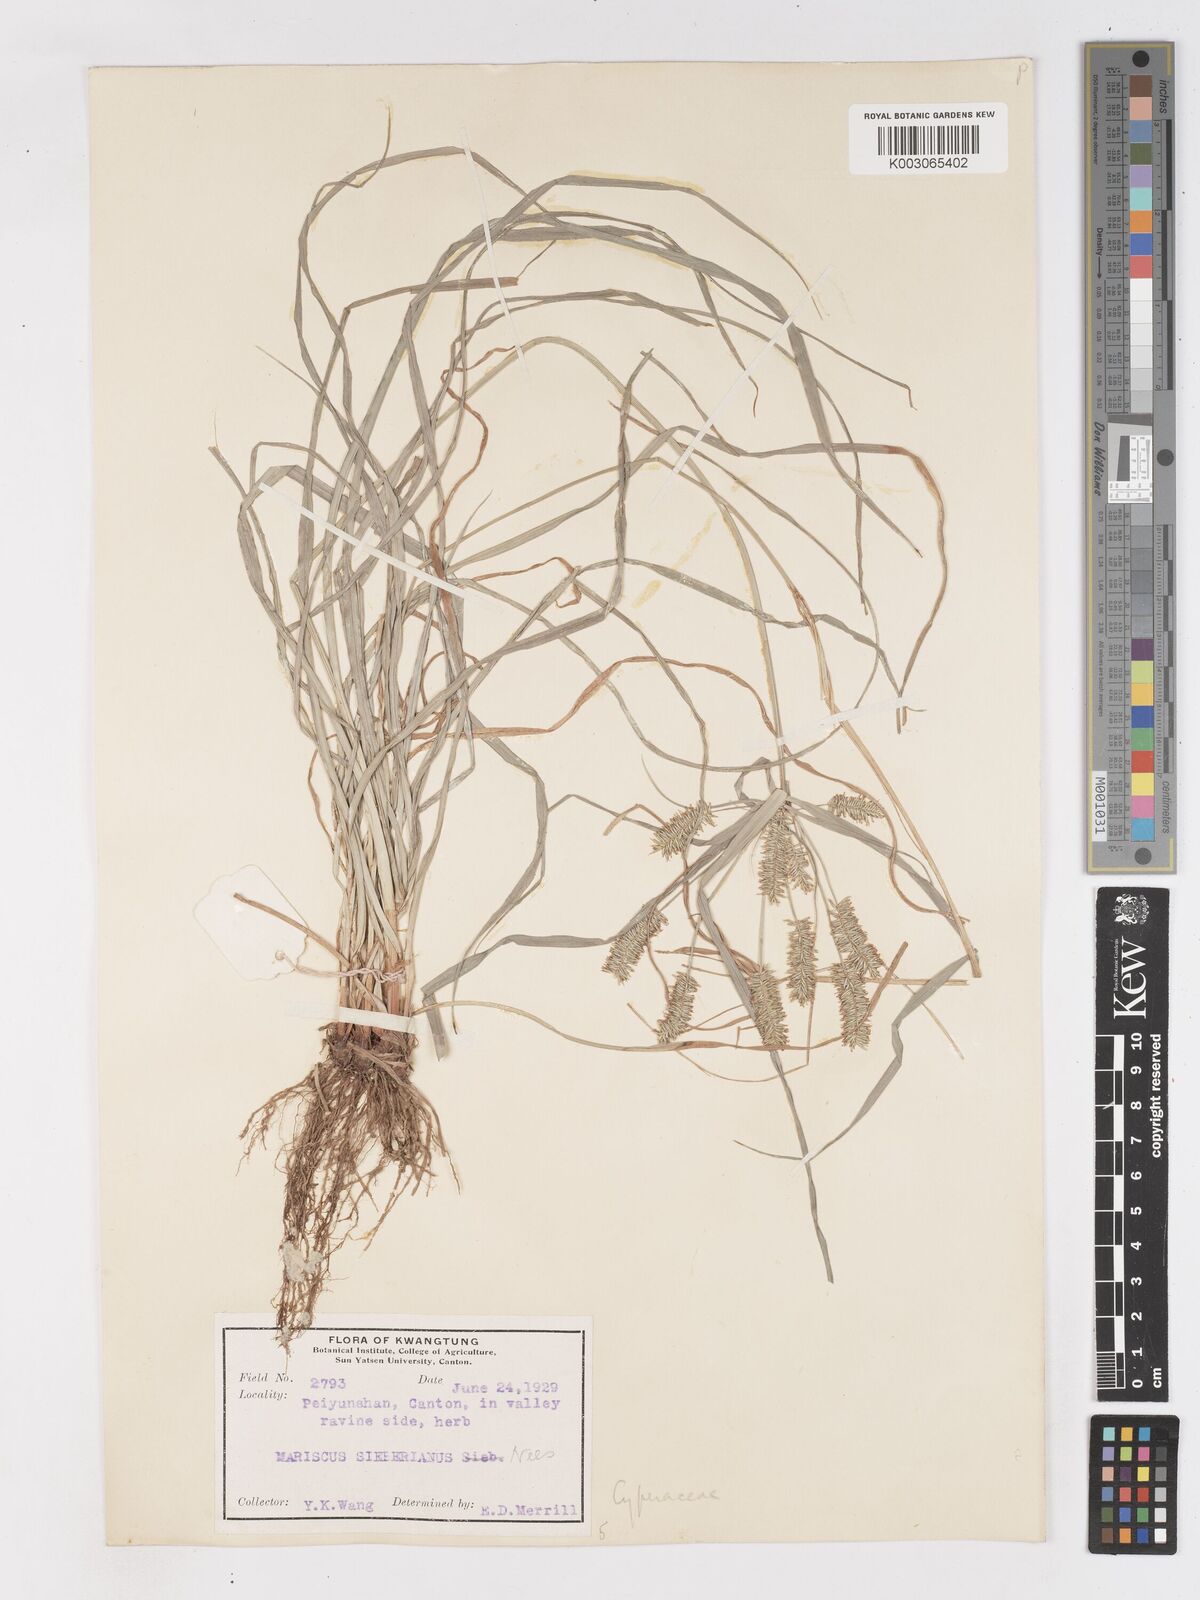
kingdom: Plantae
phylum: Tracheophyta
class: Liliopsida
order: Poales
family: Cyperaceae
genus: Cyperus
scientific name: Cyperus cyperoides
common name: Pacific island flat sedge
